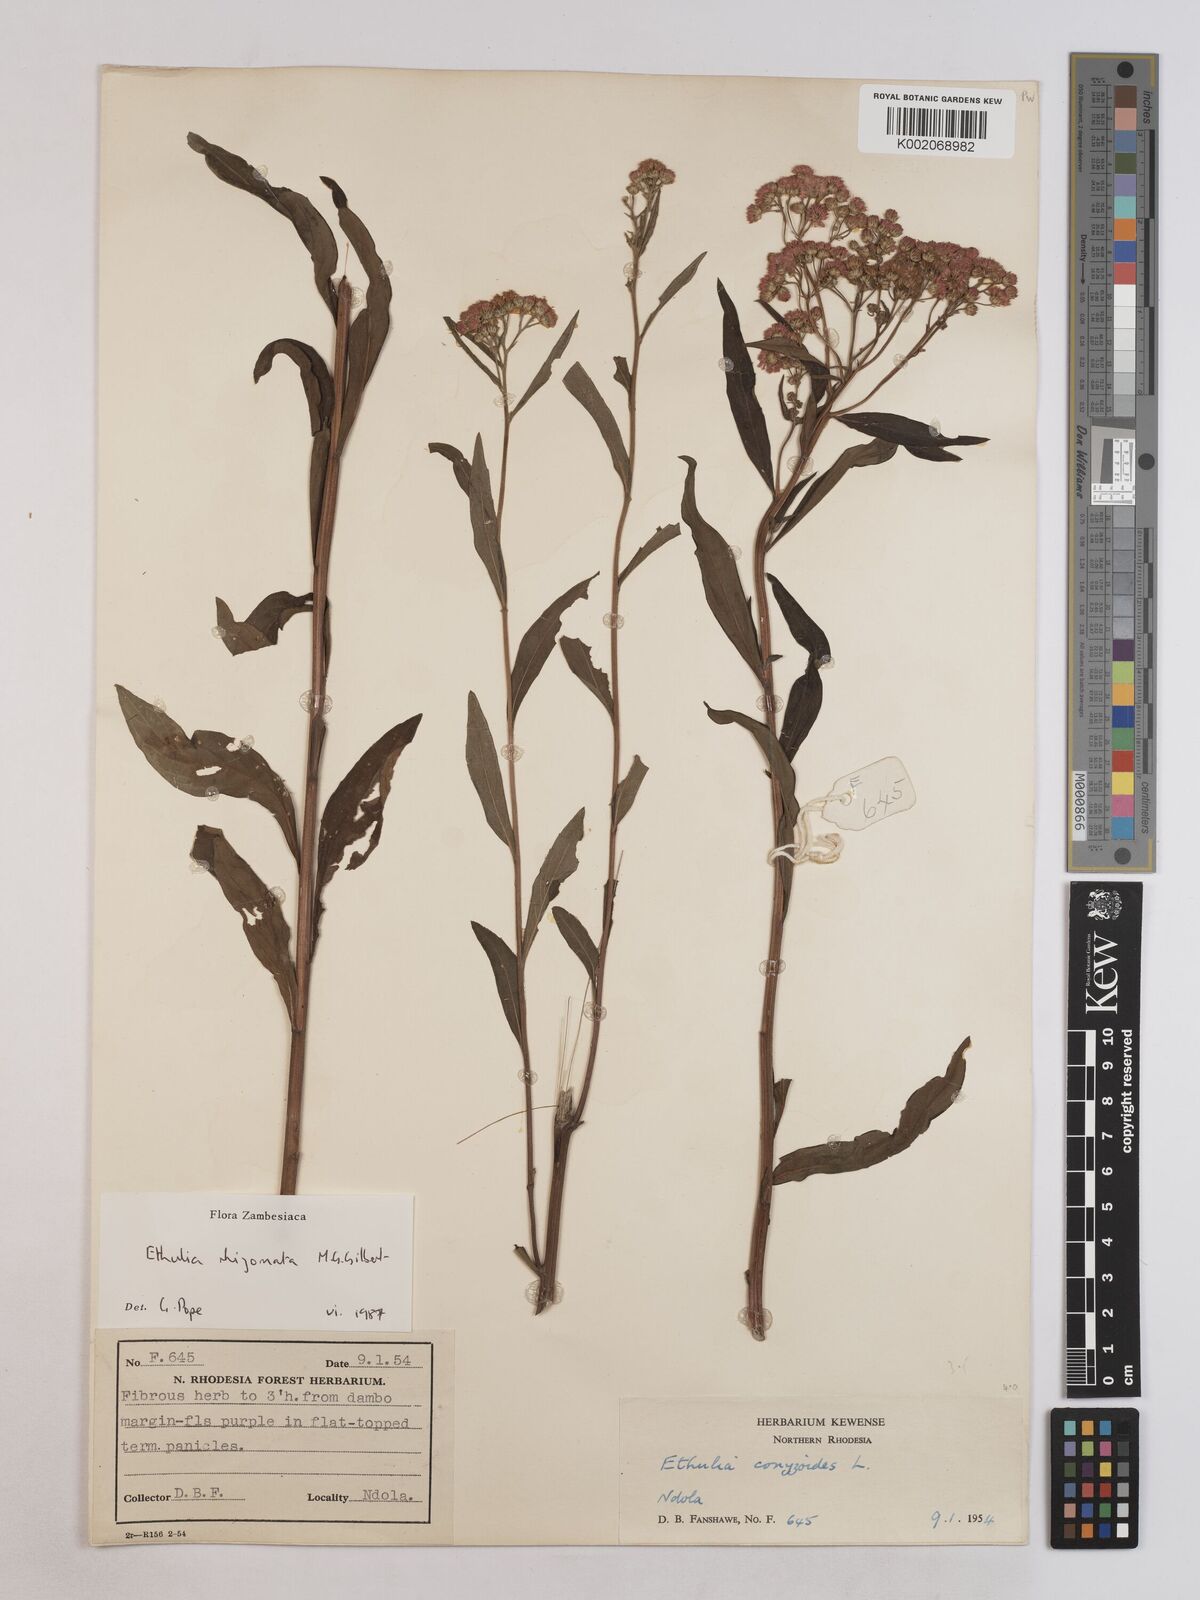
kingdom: Plantae
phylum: Tracheophyta
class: Magnoliopsida
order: Asterales
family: Asteraceae
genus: Ethulia
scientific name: Ethulia rhizomata
